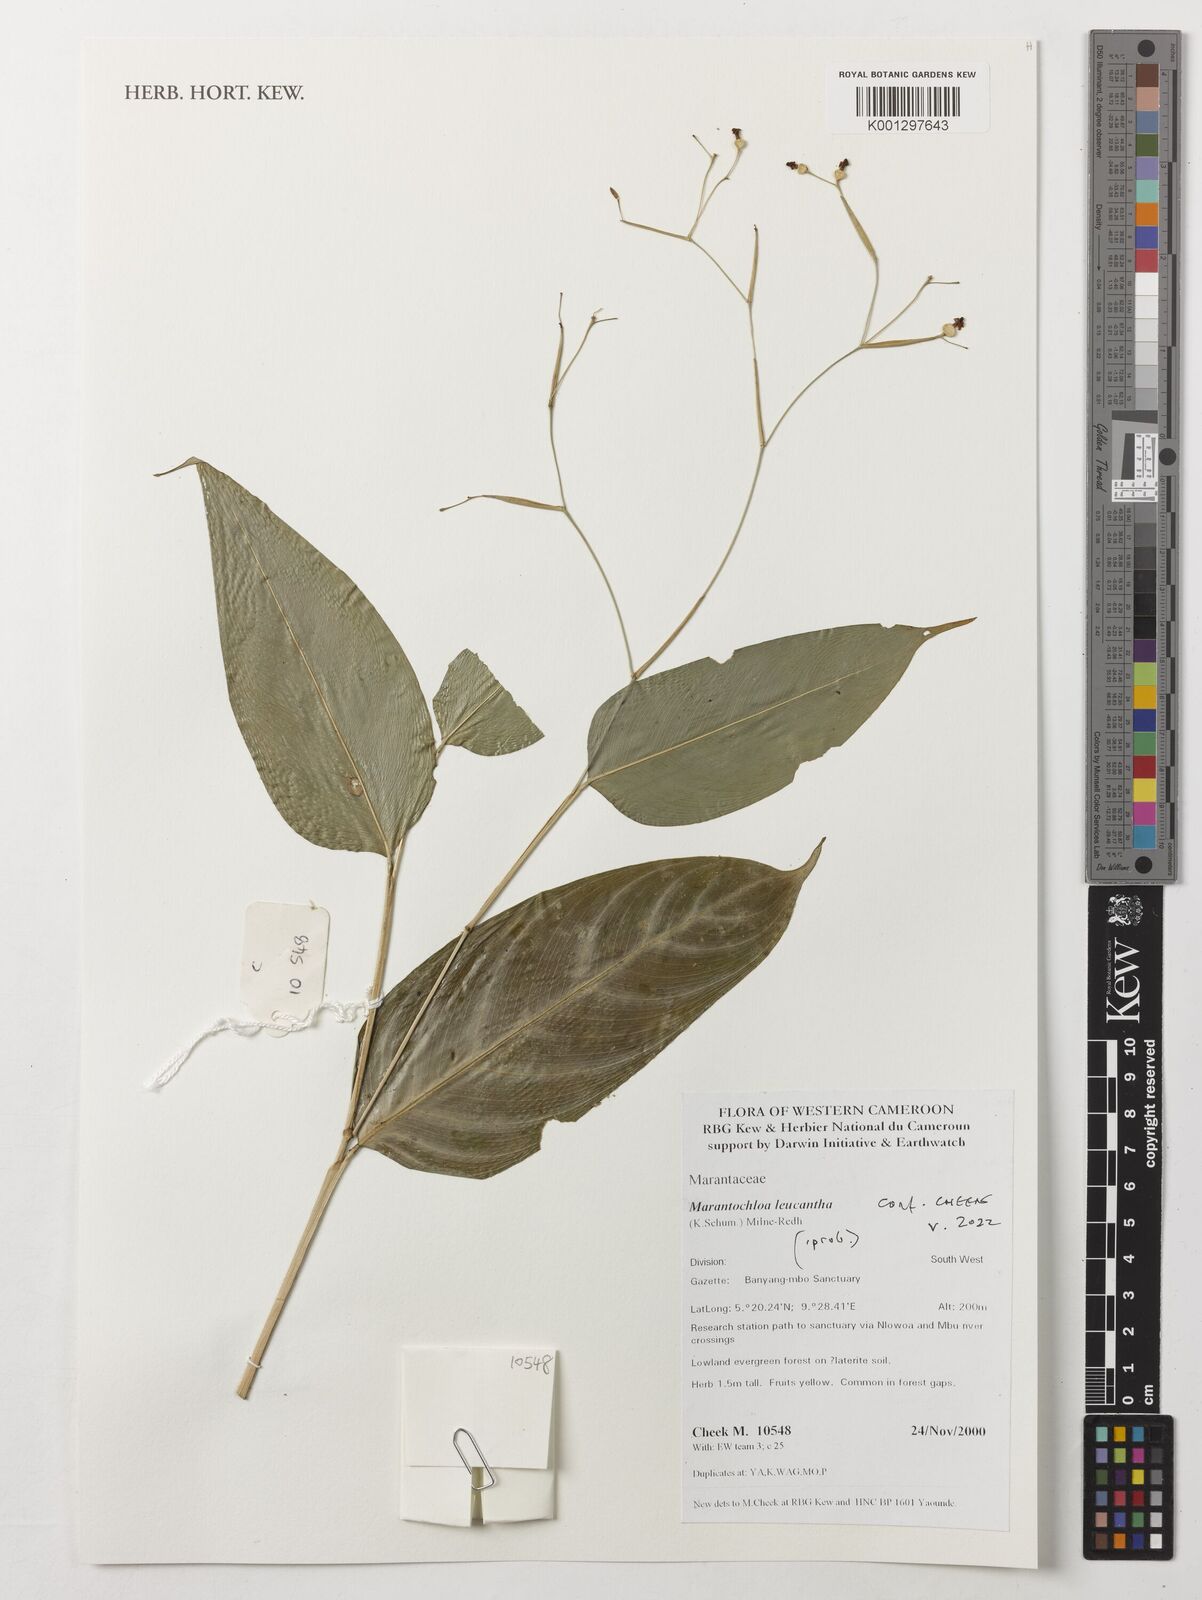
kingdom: Plantae
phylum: Tracheophyta
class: Liliopsida
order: Zingiberales
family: Marantaceae
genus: Marantochloa
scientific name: Marantochloa leucantha
